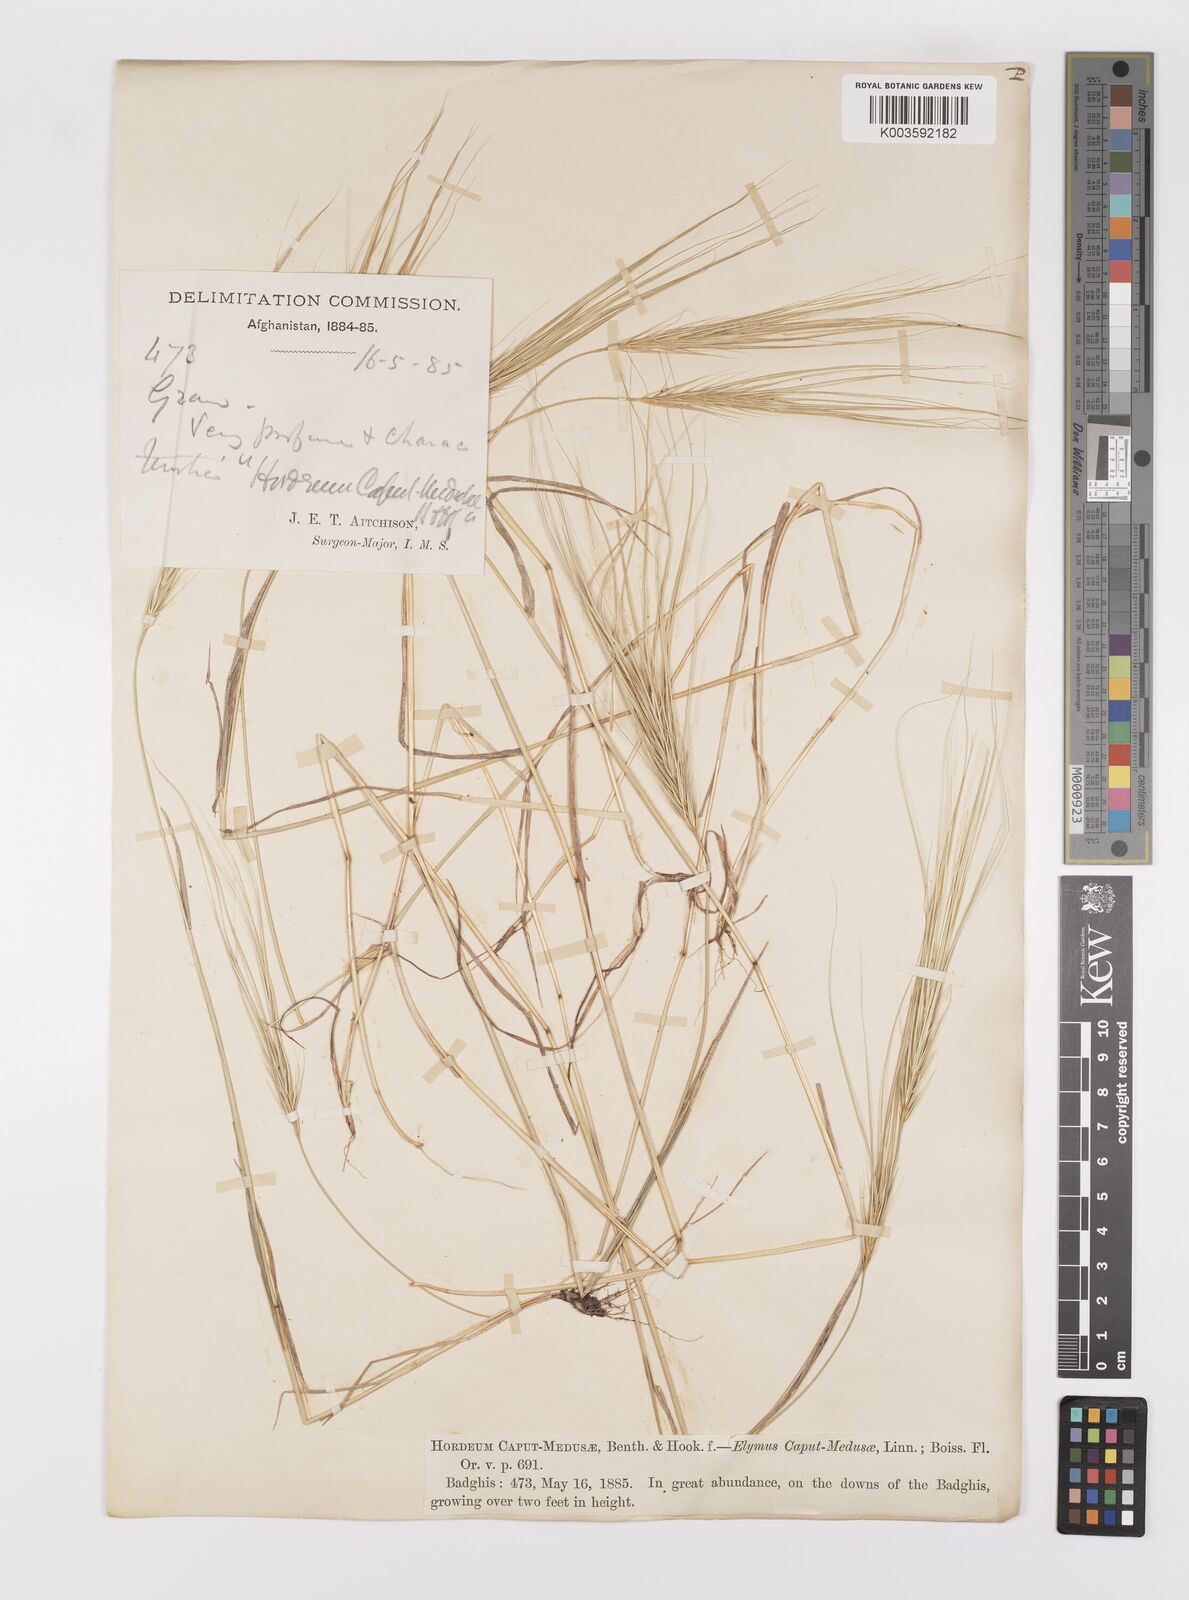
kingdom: Plantae
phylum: Tracheophyta
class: Liliopsida
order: Poales
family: Poaceae
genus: Taeniatherum
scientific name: Taeniatherum caput-medusae
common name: Medusahead
